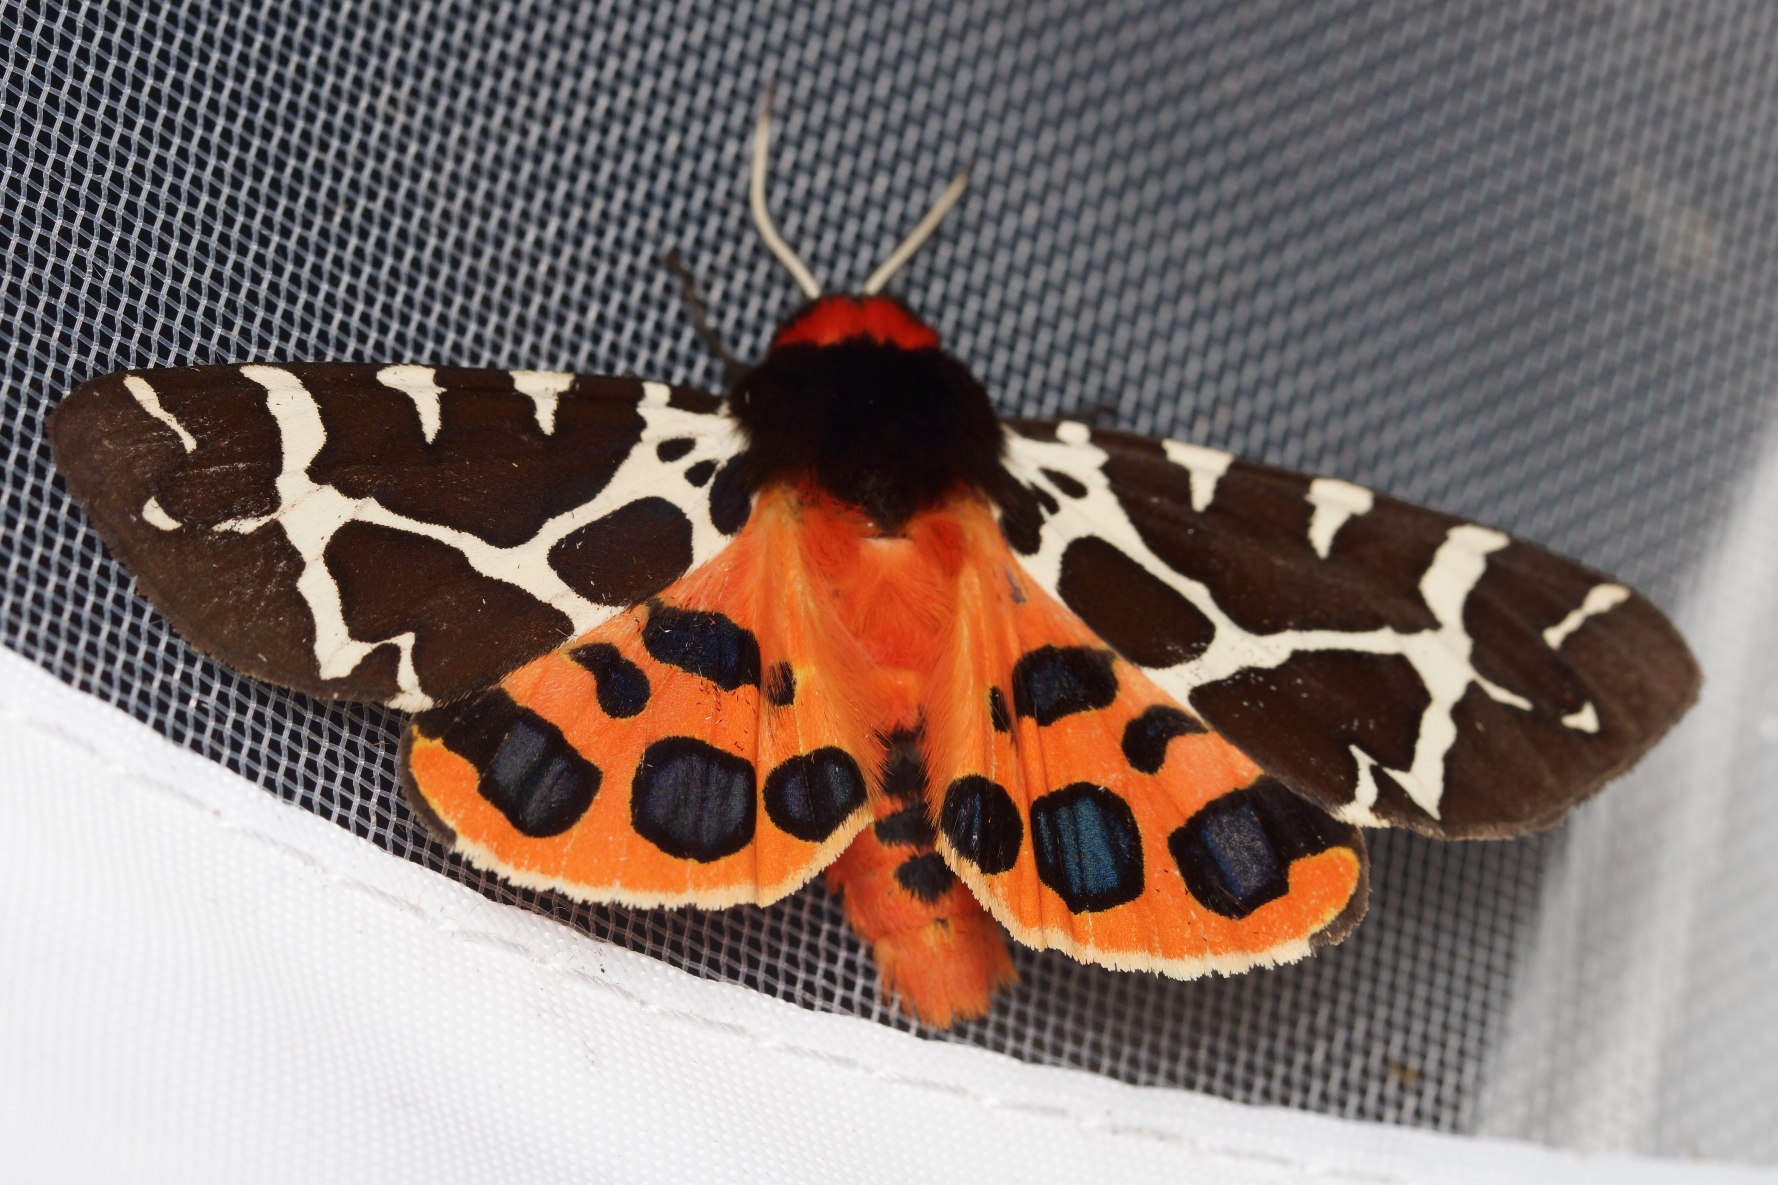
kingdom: Animalia
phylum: Arthropoda
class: Insecta
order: Lepidoptera
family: Erebidae
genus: Arctia
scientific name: Arctia caja
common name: Brun bjørn
